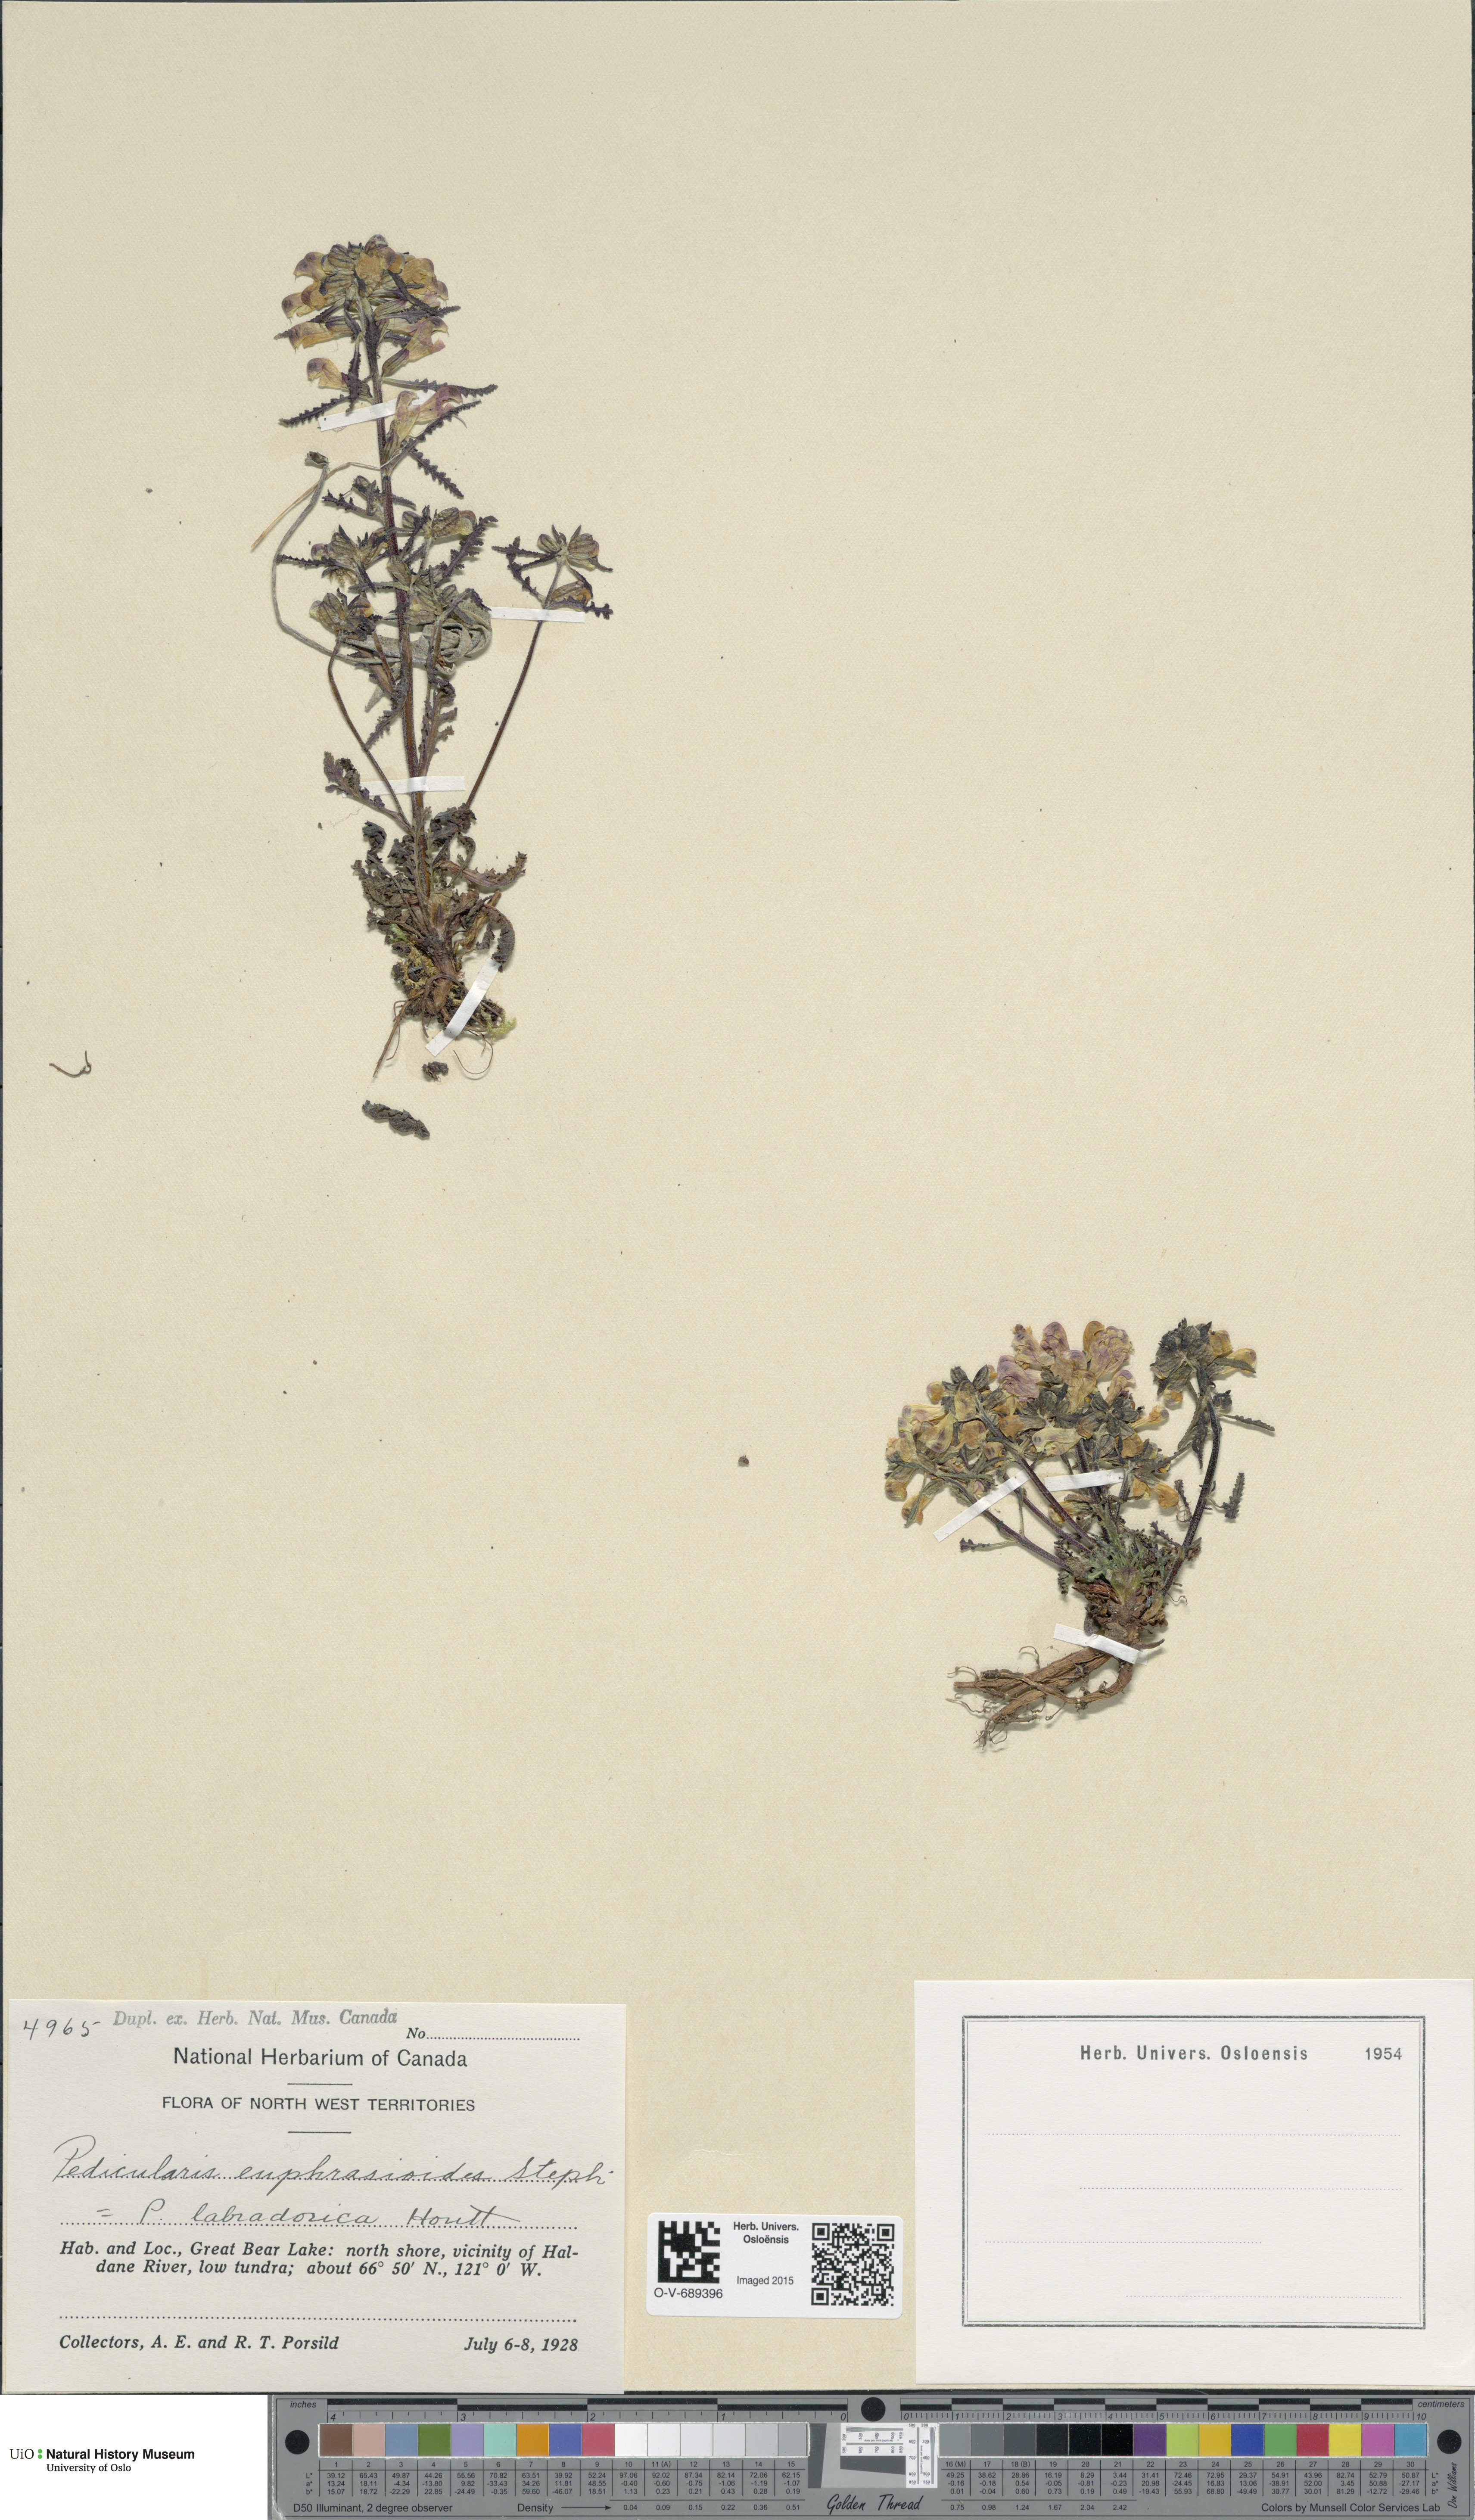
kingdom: Plantae
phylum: Tracheophyta
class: Magnoliopsida
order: Lamiales
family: Orobanchaceae
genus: Pedicularis
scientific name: Pedicularis labradorica
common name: Labrador lousewort
